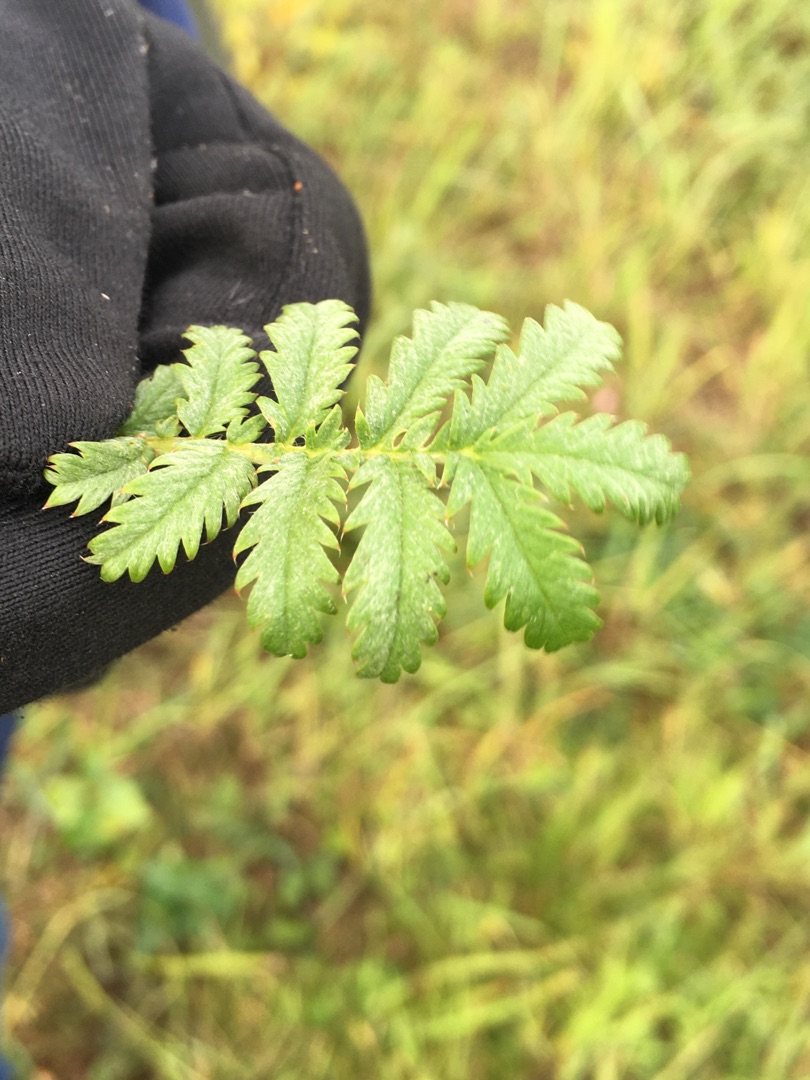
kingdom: Plantae
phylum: Tracheophyta
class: Magnoliopsida
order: Rosales
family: Rosaceae
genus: Argentina
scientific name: Argentina anserina
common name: Gåsepotentil
